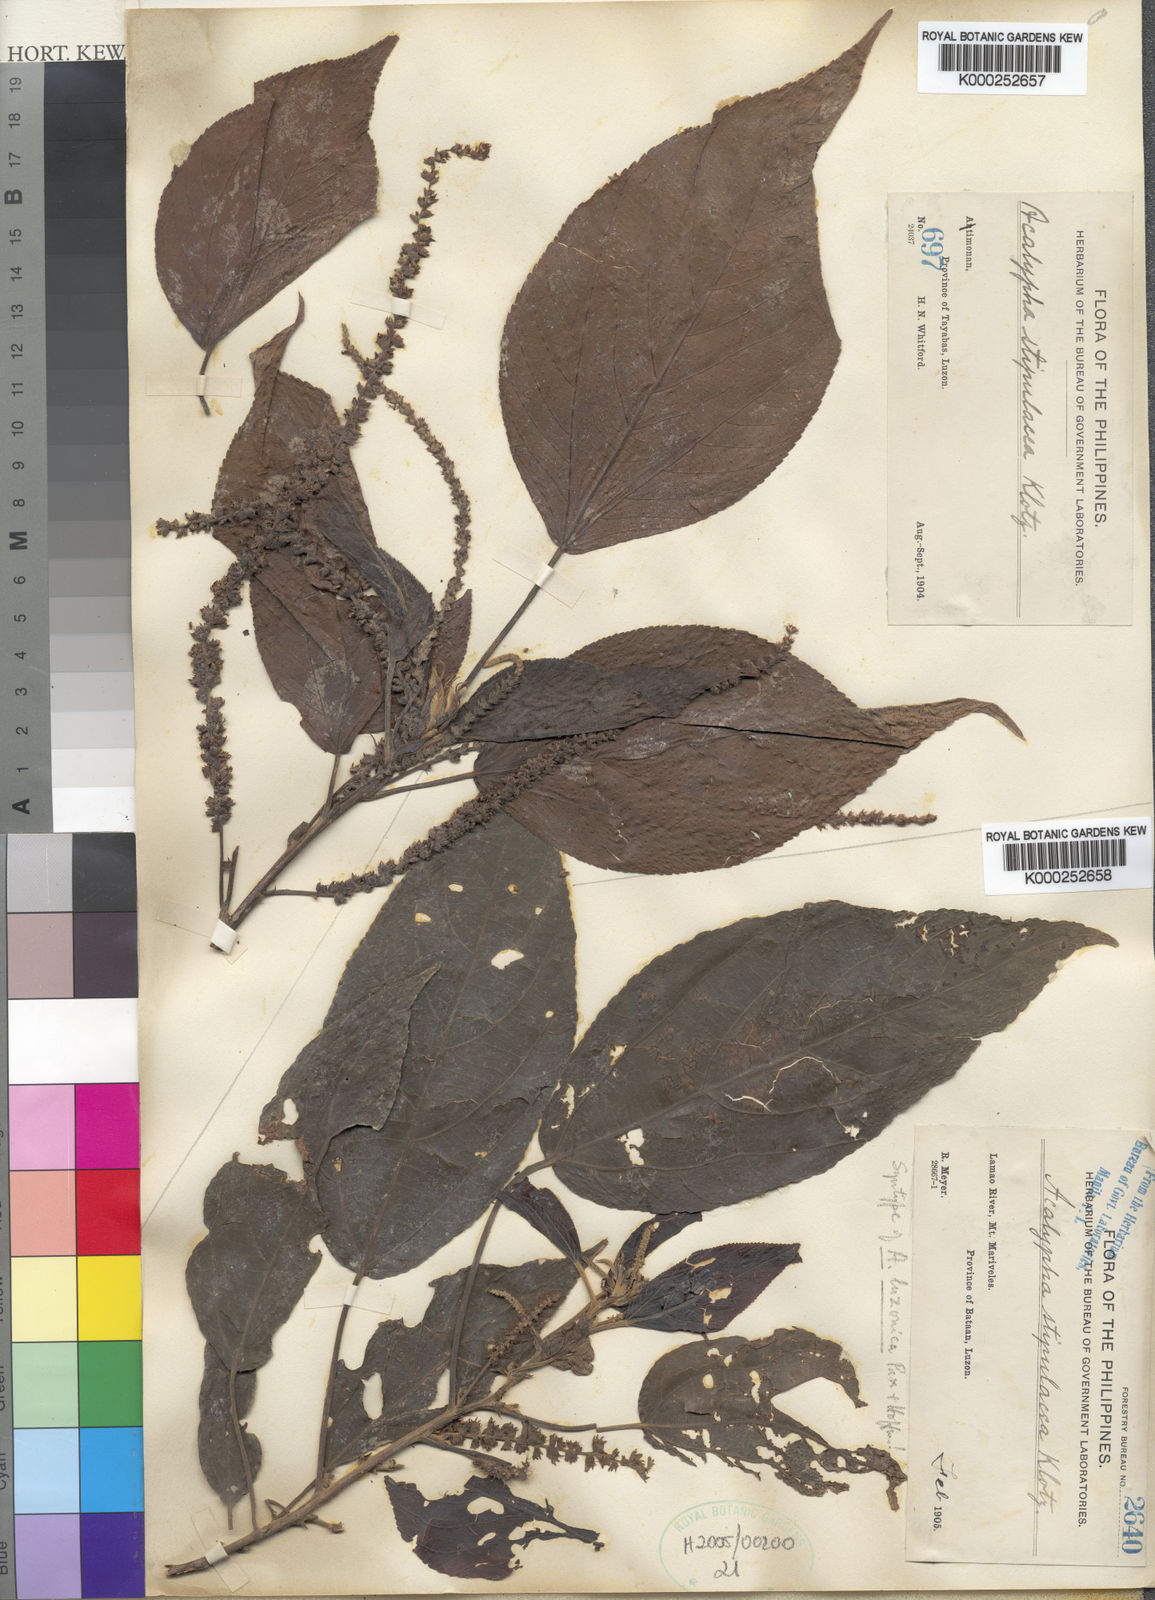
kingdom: Plantae
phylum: Tracheophyta
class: Magnoliopsida
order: Malpighiales
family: Euphorbiaceae
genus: Acalypha
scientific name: Acalypha amentacea
